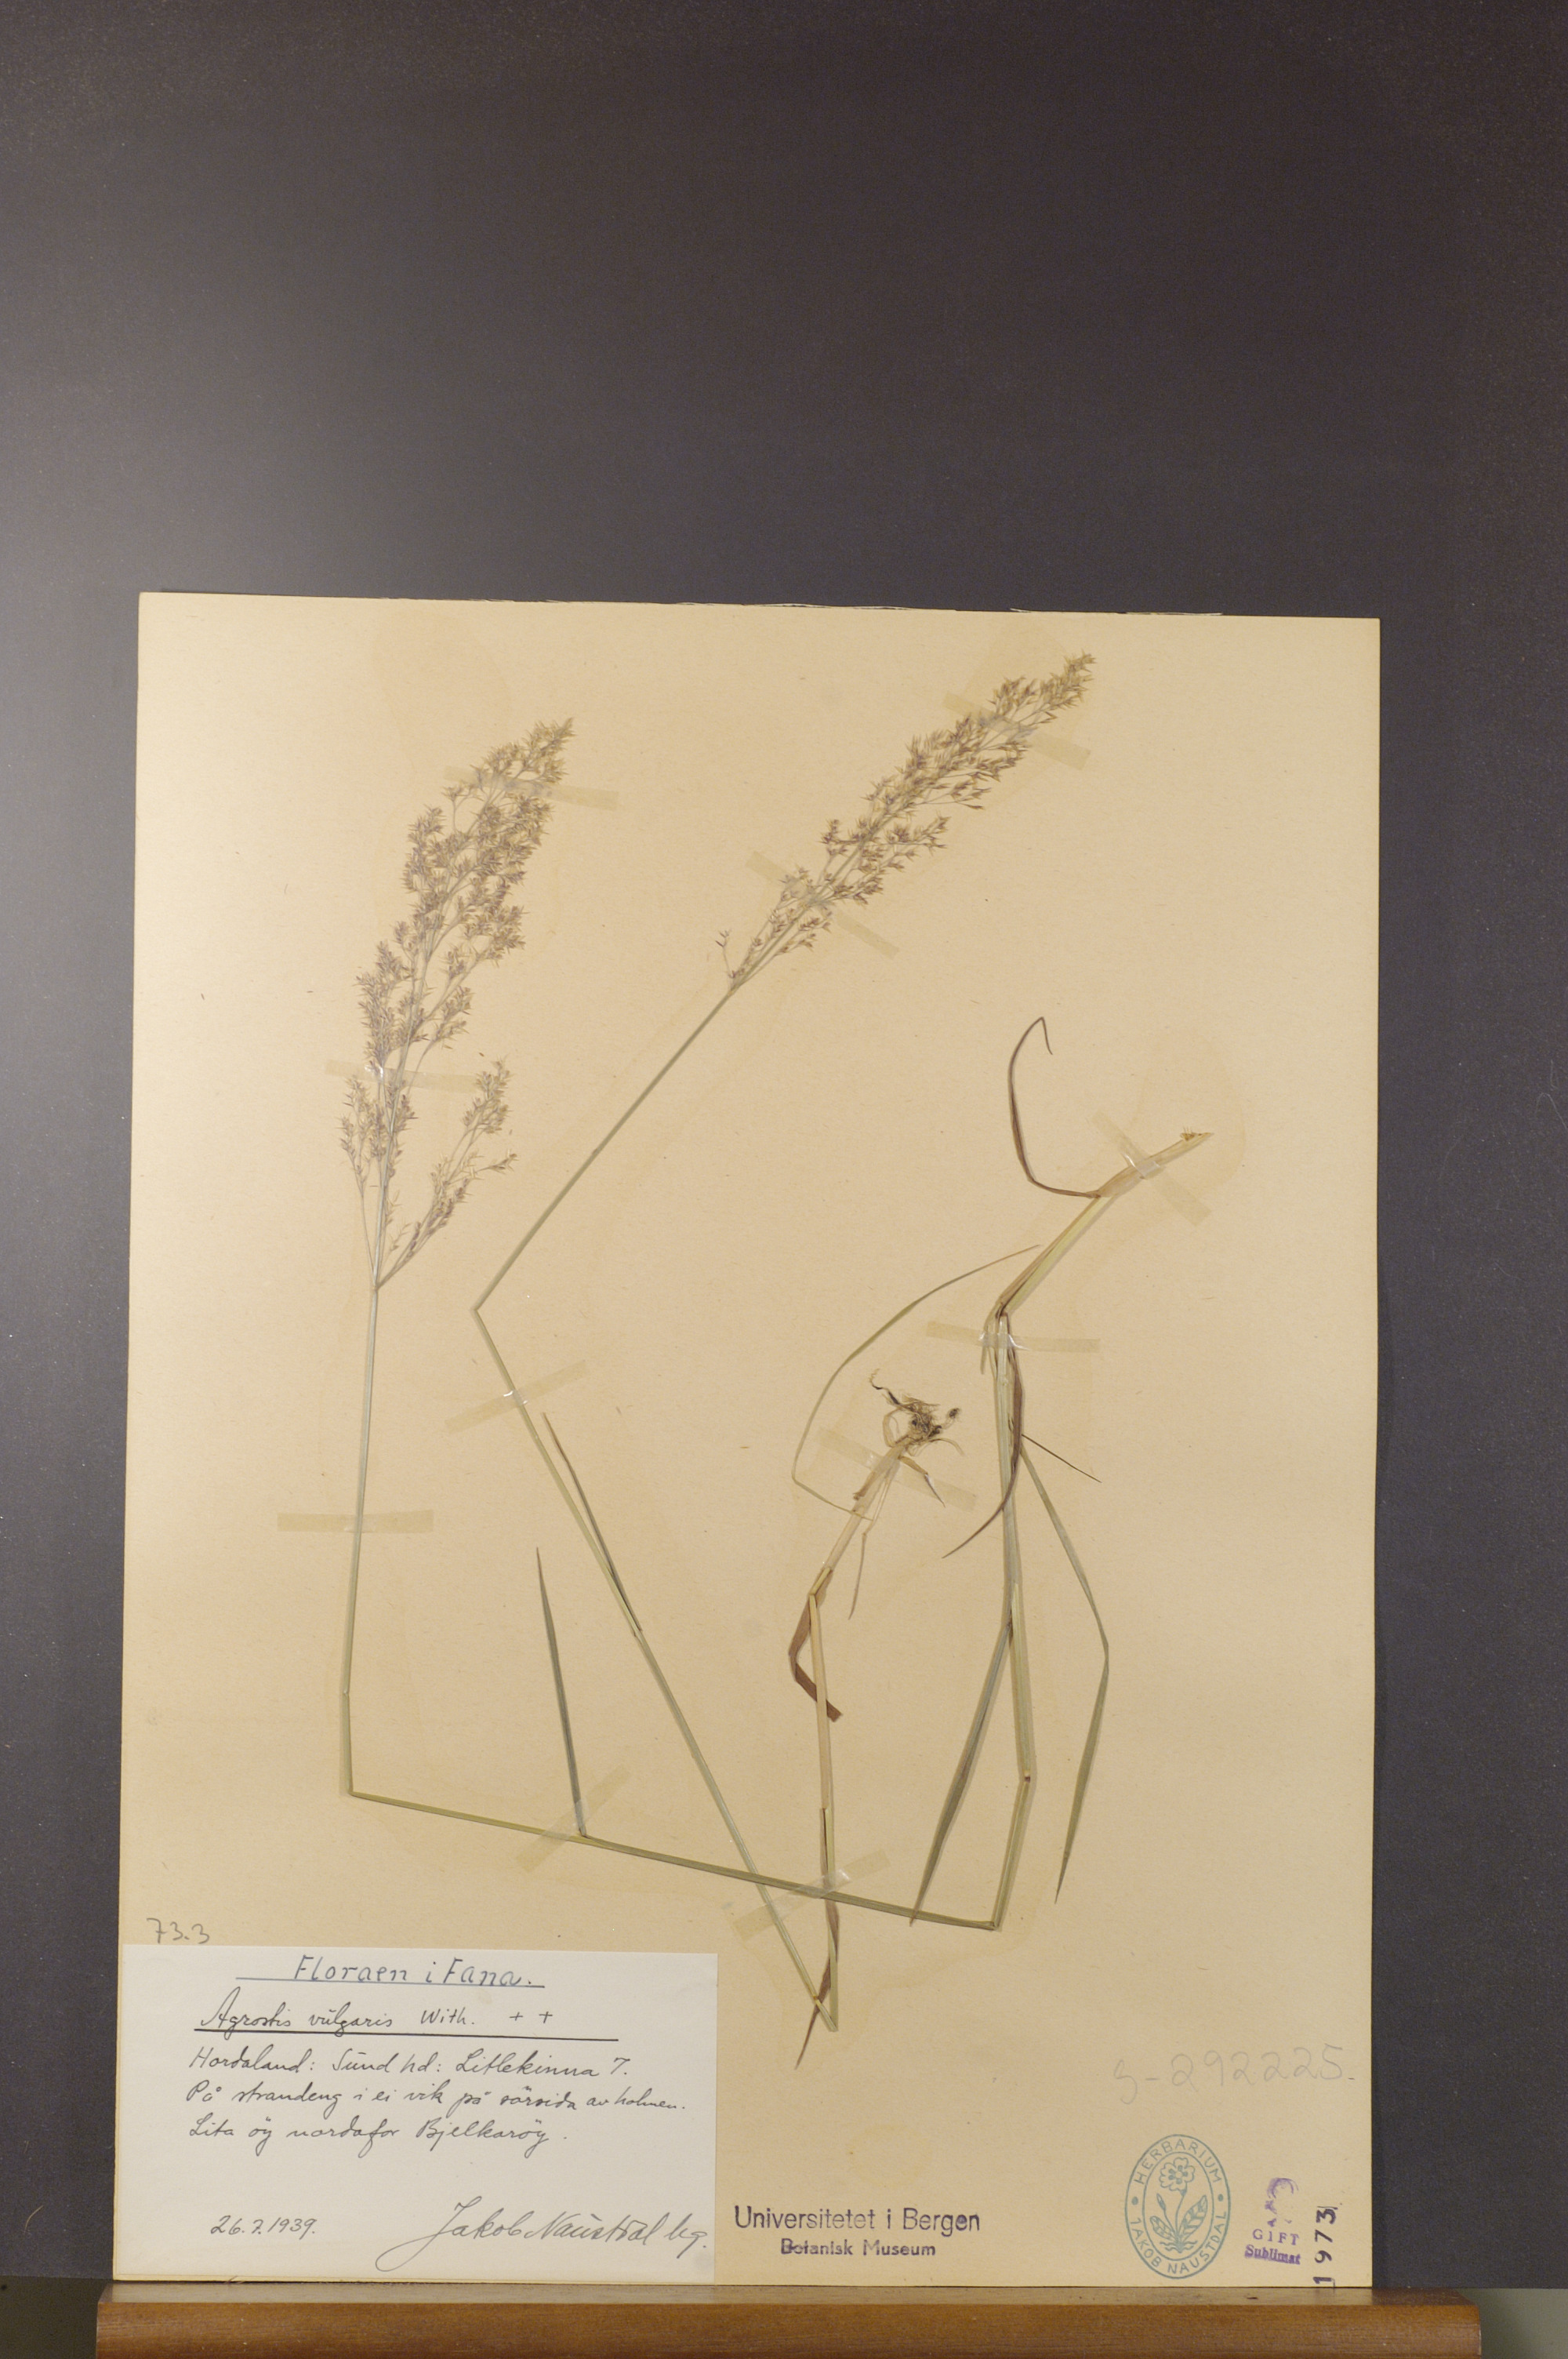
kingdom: Plantae
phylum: Tracheophyta
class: Liliopsida
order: Poales
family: Poaceae
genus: Agrostis
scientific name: Agrostis capillaris
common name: Colonial bentgrass
